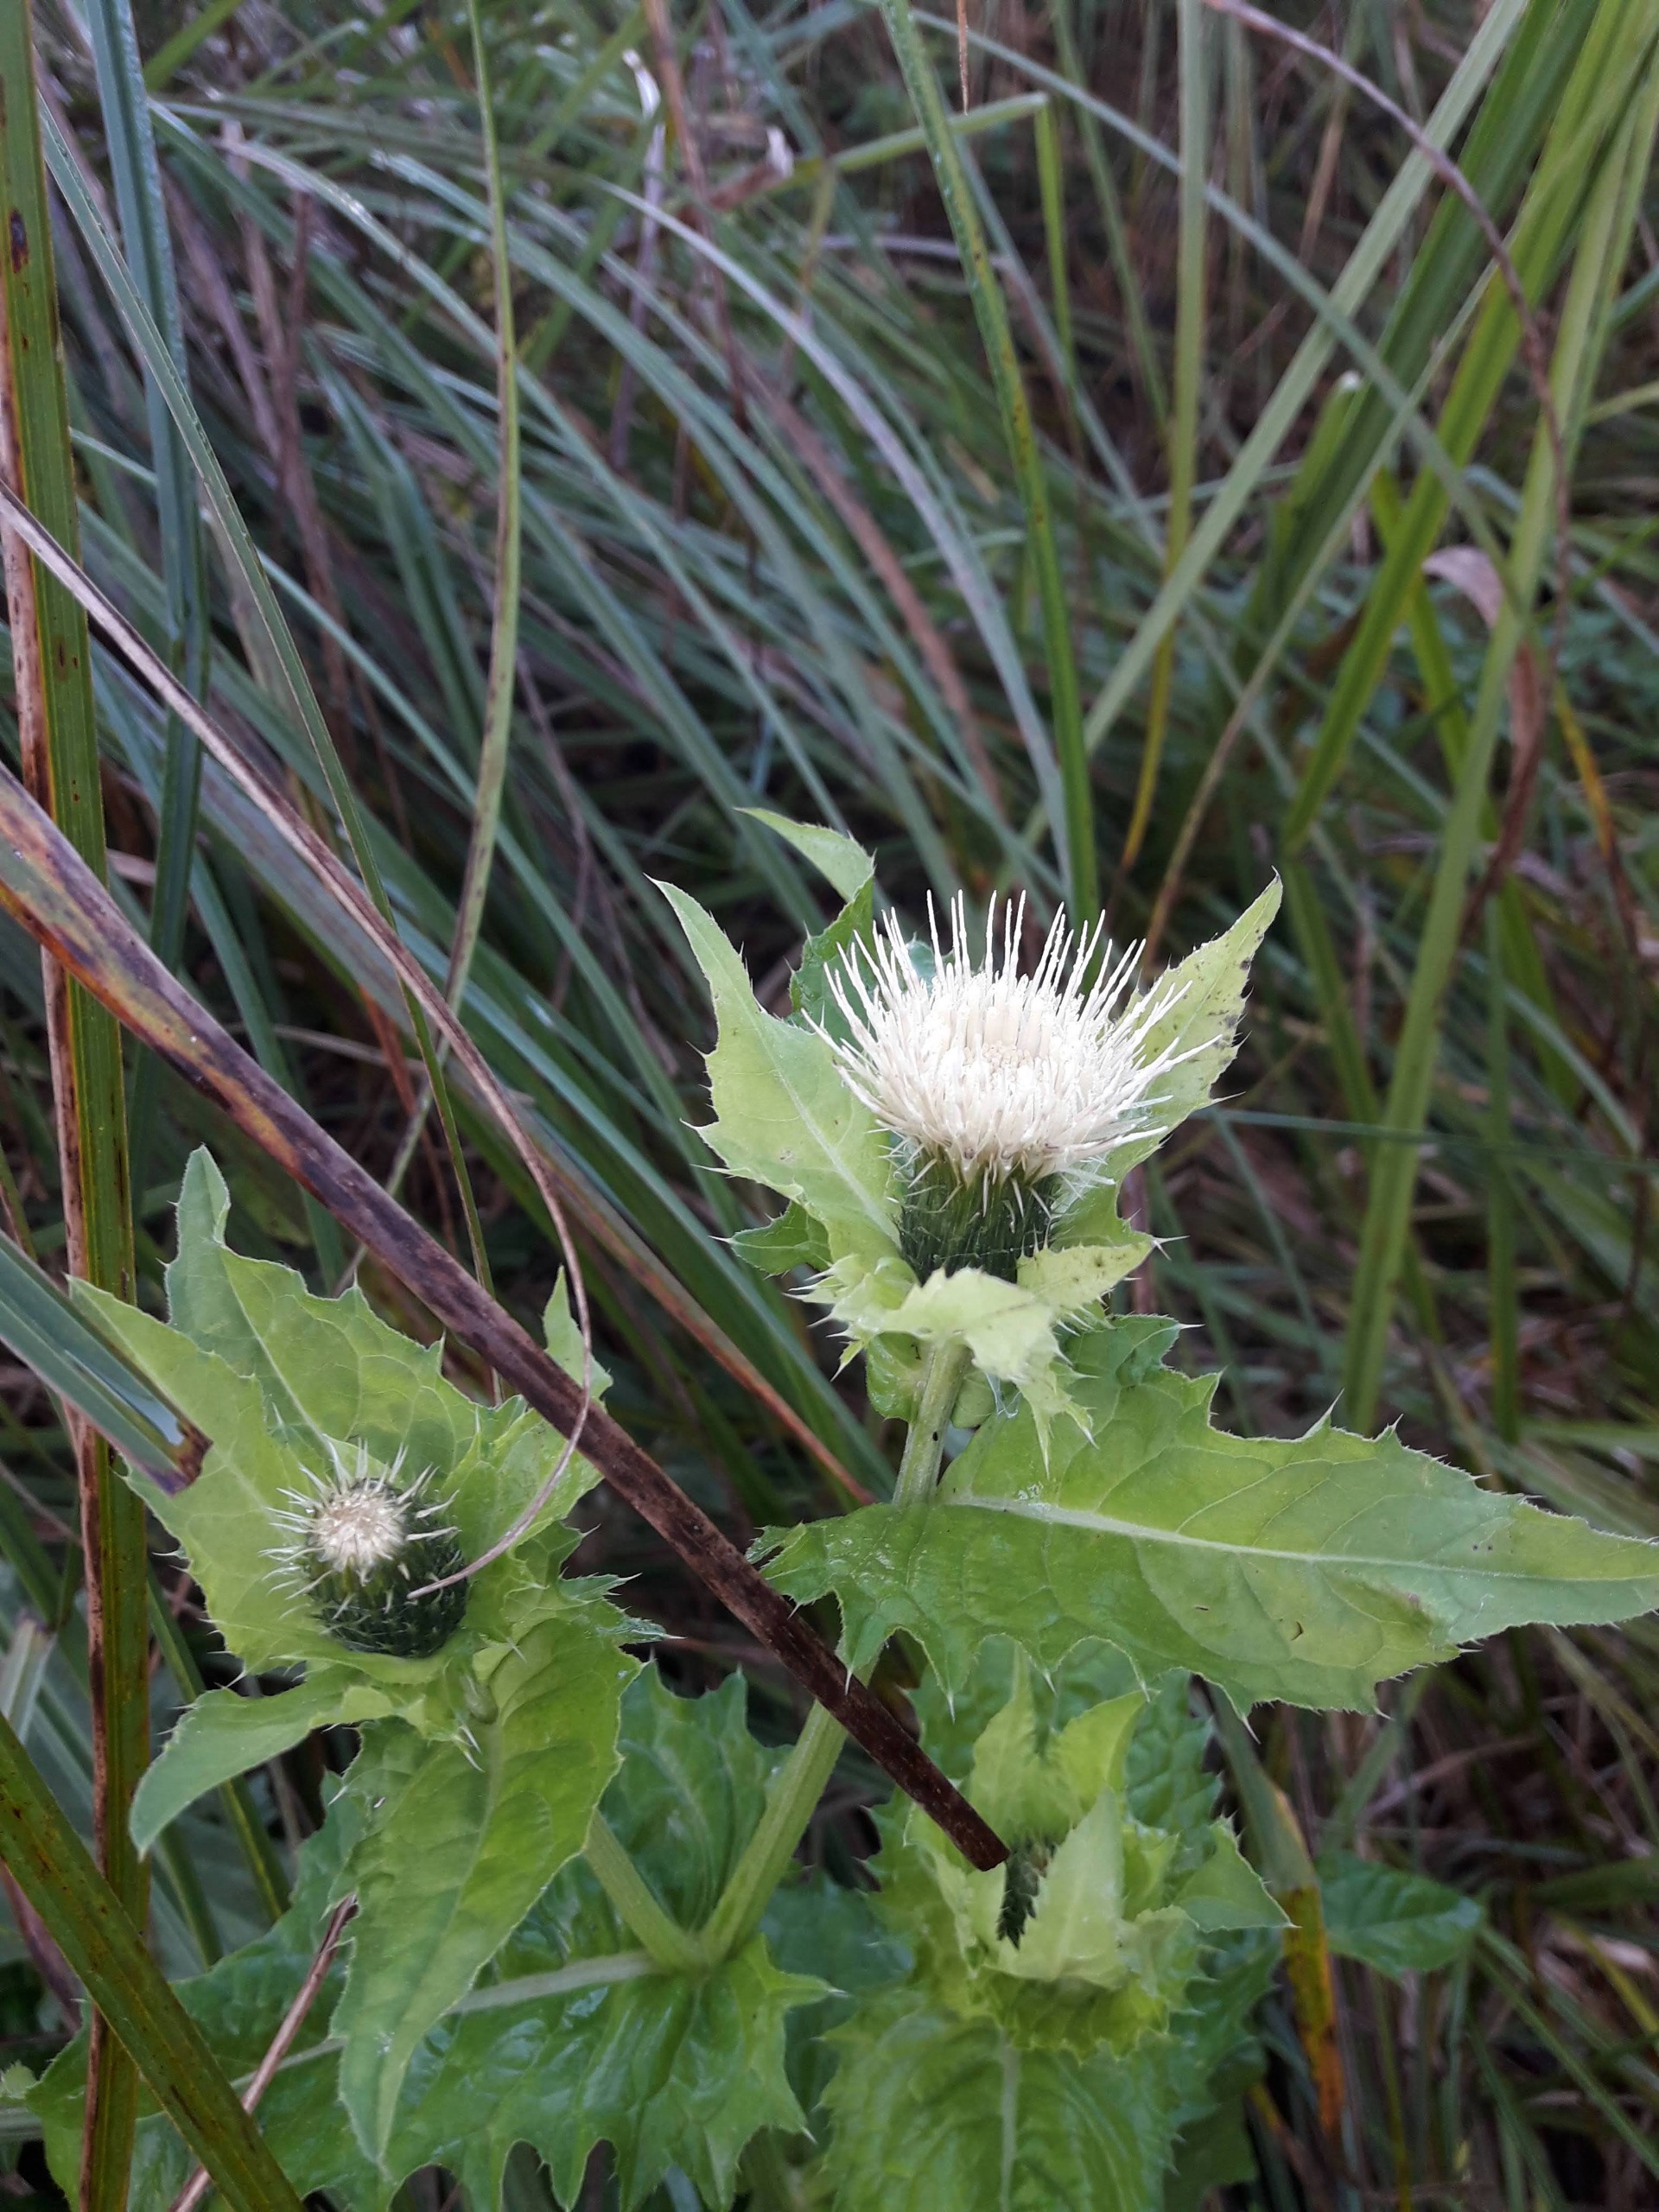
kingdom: Plantae
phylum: Tracheophyta
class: Magnoliopsida
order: Asterales
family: Asteraceae
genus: Cirsium
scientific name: Cirsium oleraceum
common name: Kål-tidsel
